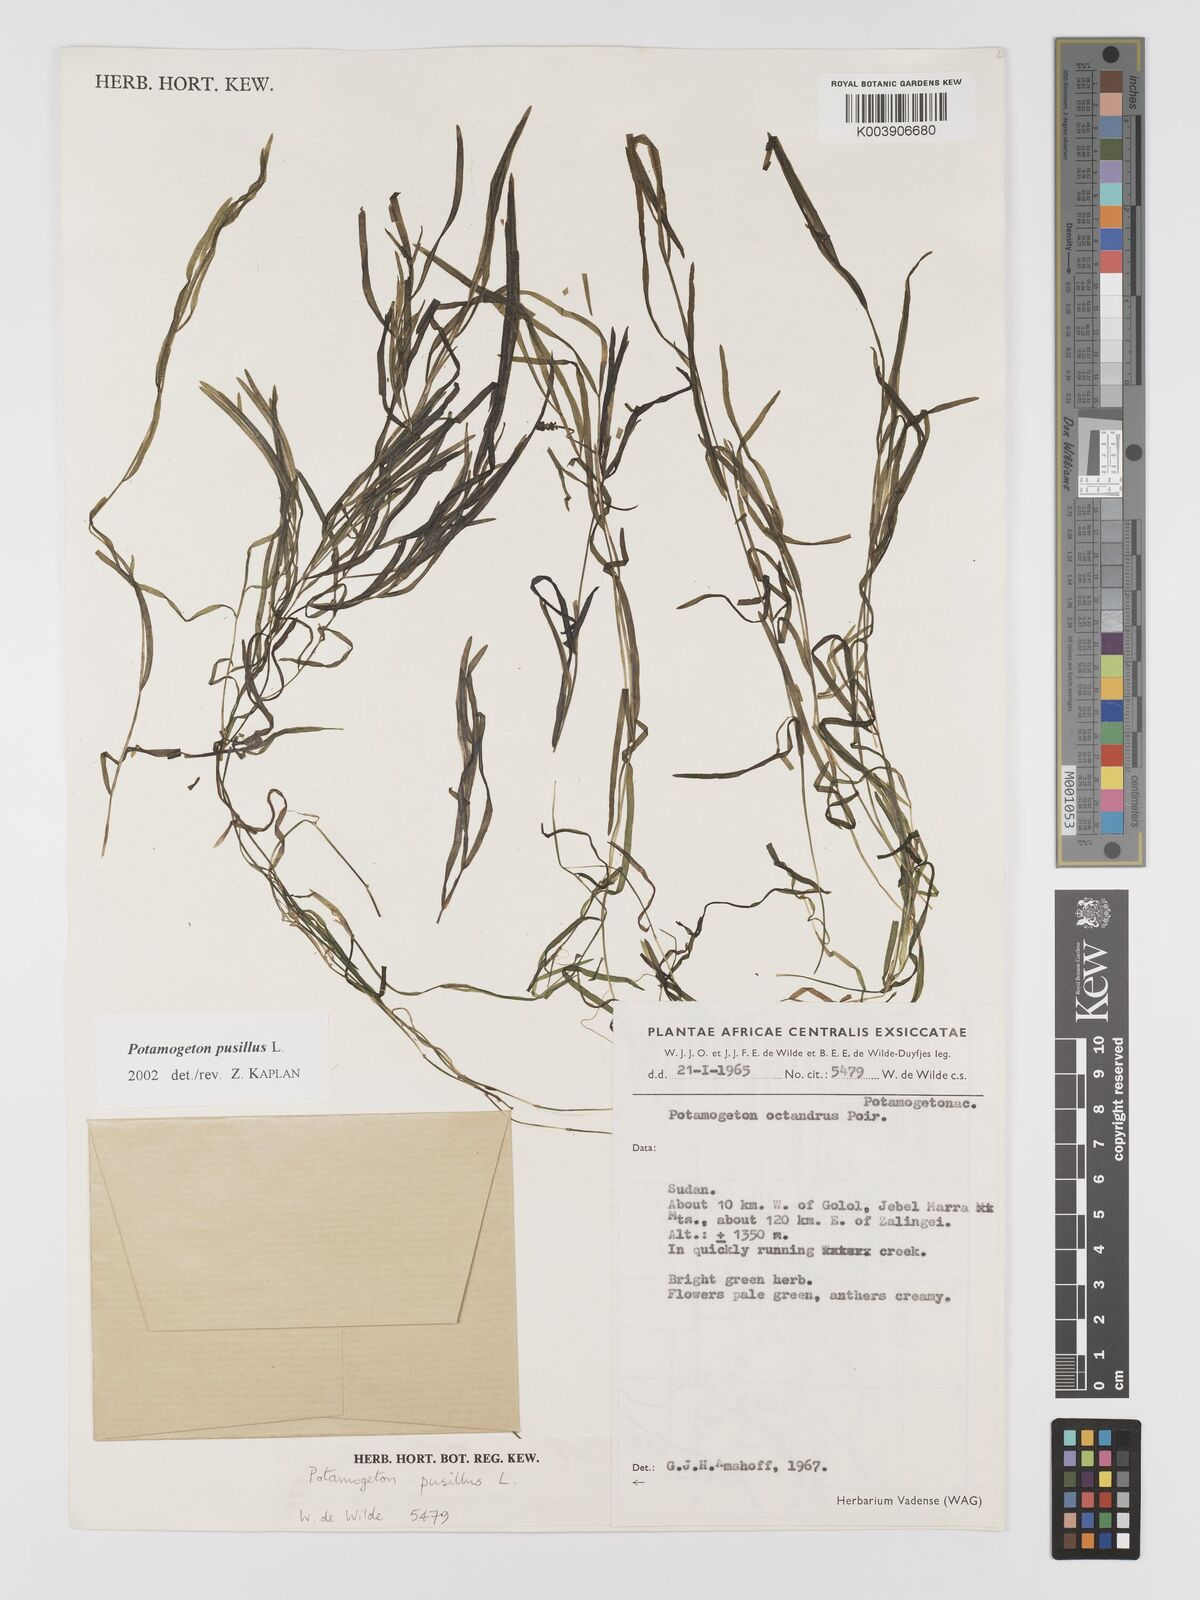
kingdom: Plantae
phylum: Tracheophyta
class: Liliopsida
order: Alismatales
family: Potamogetonaceae
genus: Potamogeton
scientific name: Potamogeton parvifolius
